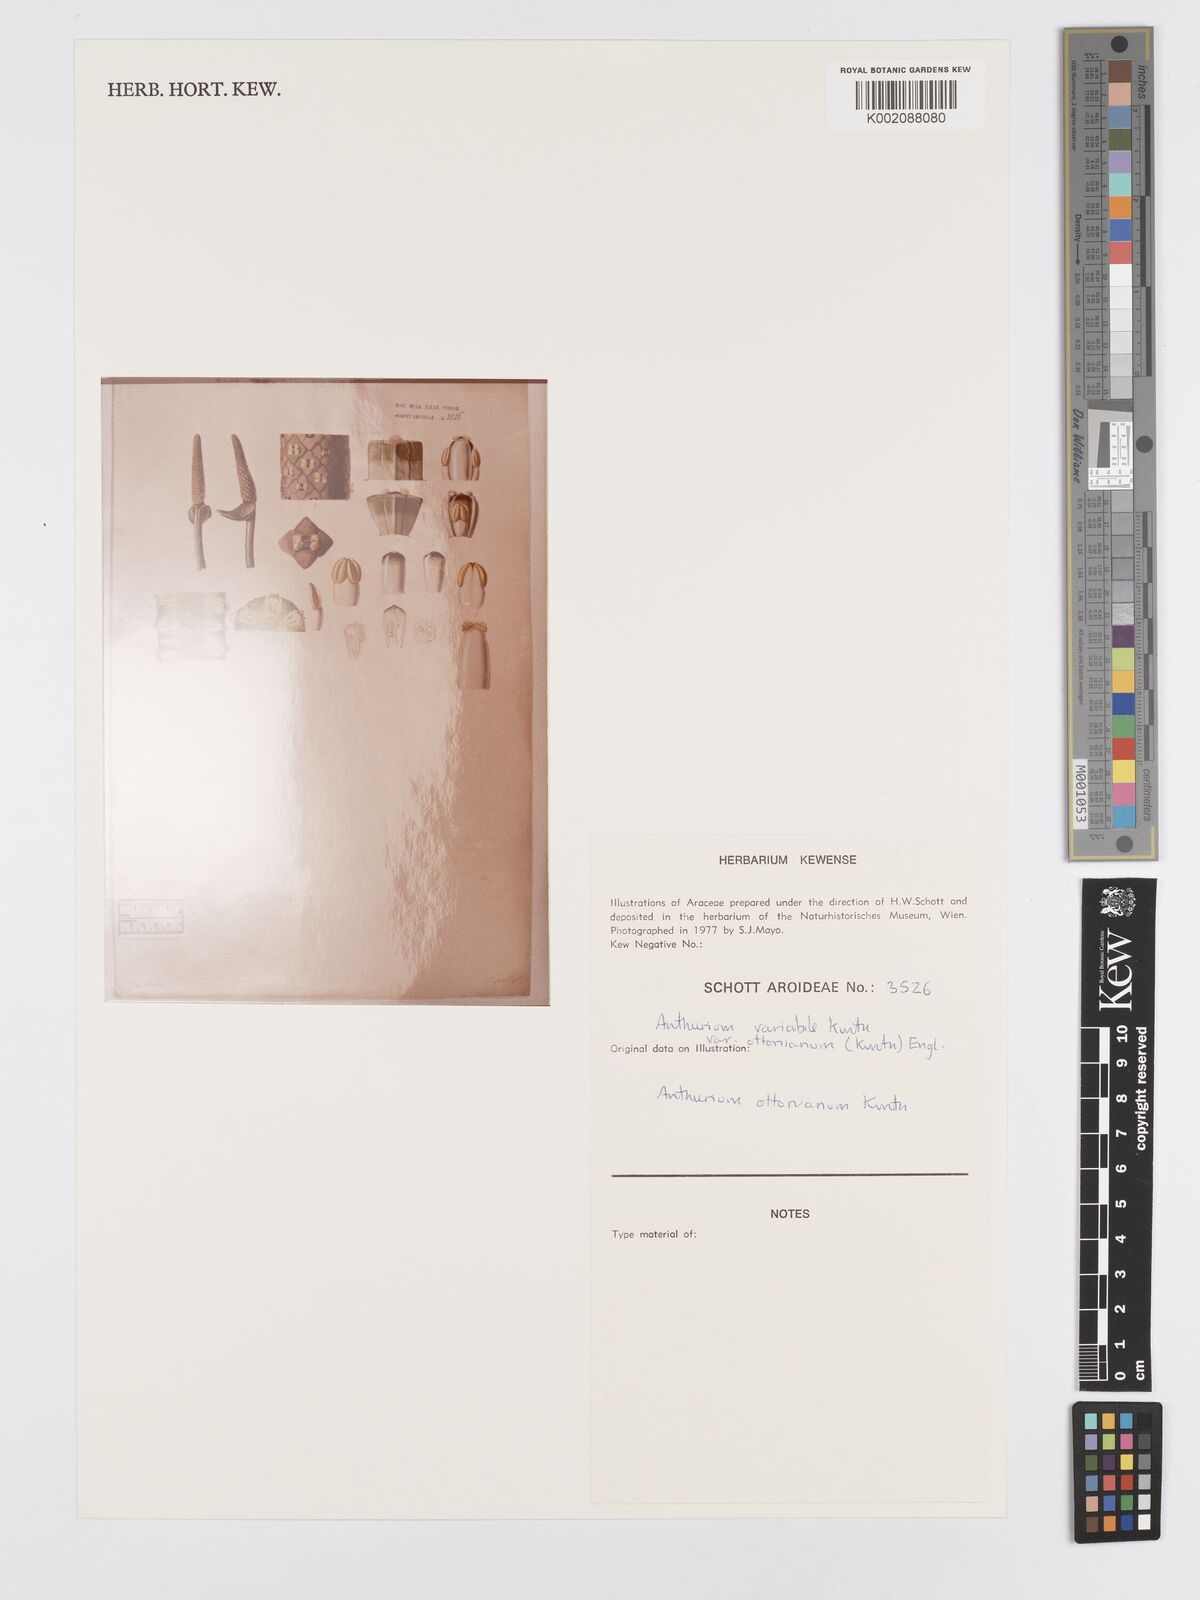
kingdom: Plantae
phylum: Tracheophyta
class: Liliopsida
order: Alismatales
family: Araceae
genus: Anthurium
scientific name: Anthurium pentaphyllum
